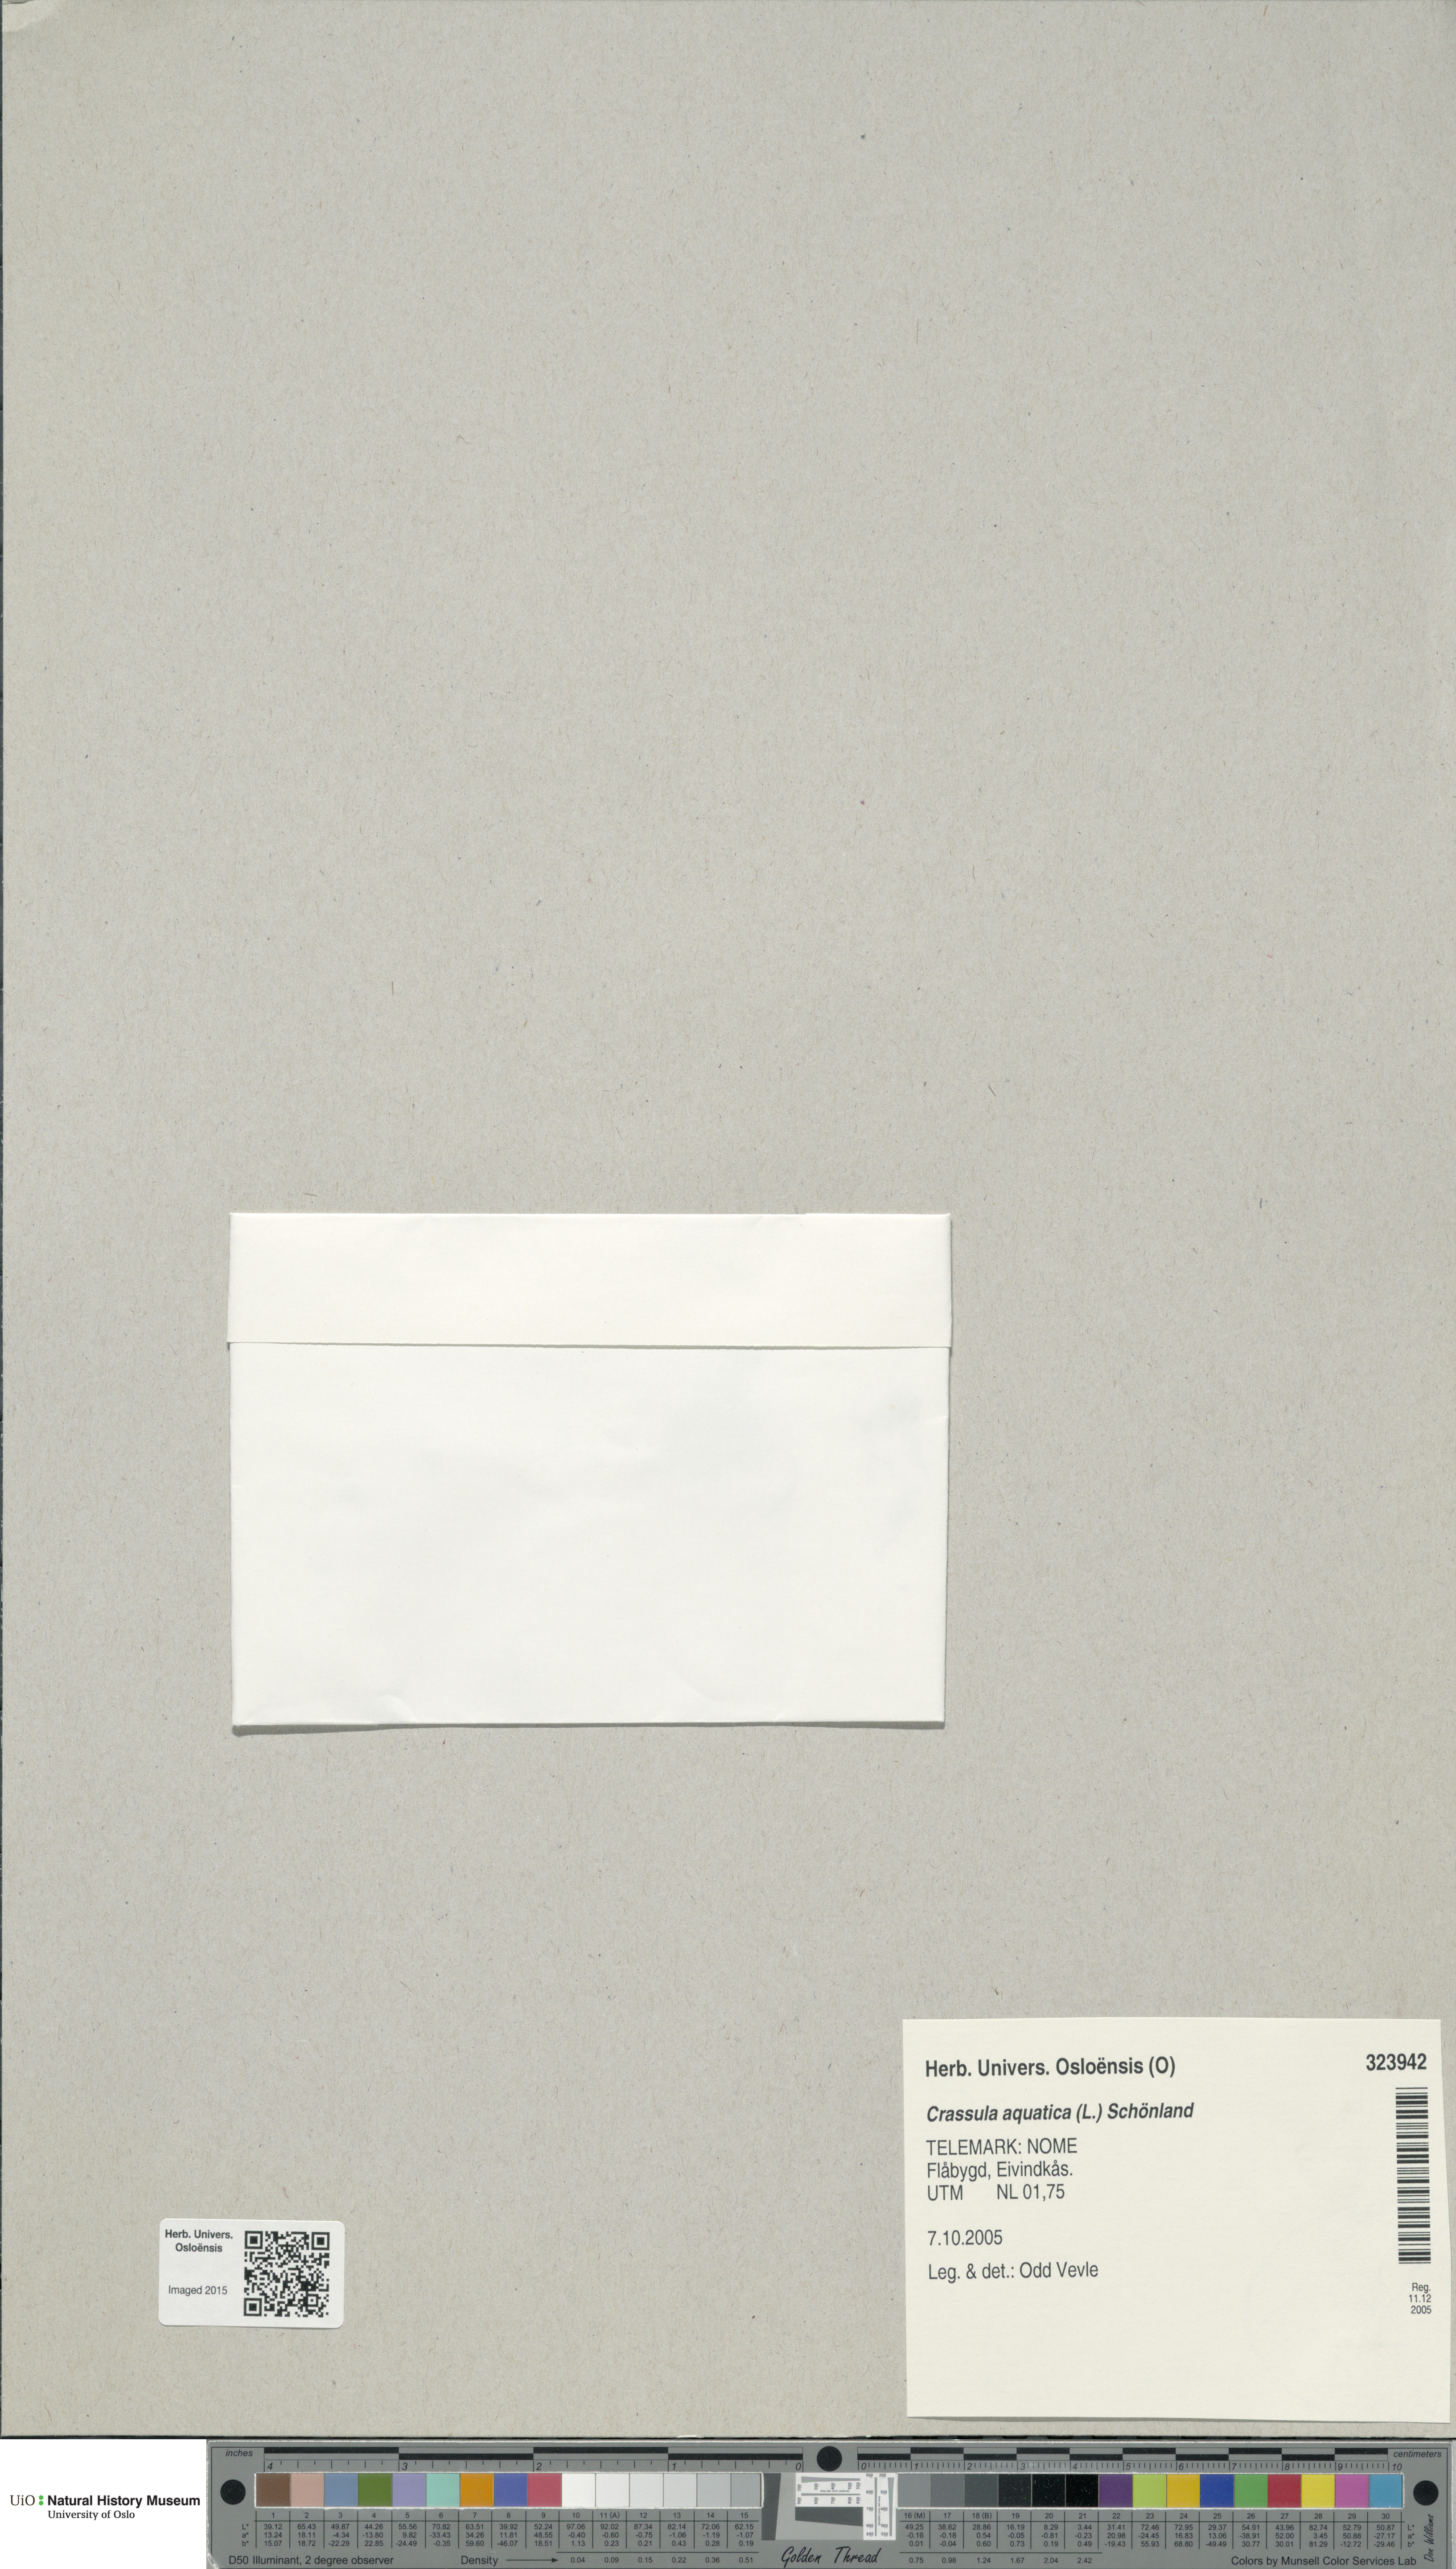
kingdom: Plantae
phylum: Tracheophyta
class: Magnoliopsida
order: Saxifragales
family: Crassulaceae
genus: Crassula
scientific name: Crassula aquatica
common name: Pigmyweed
